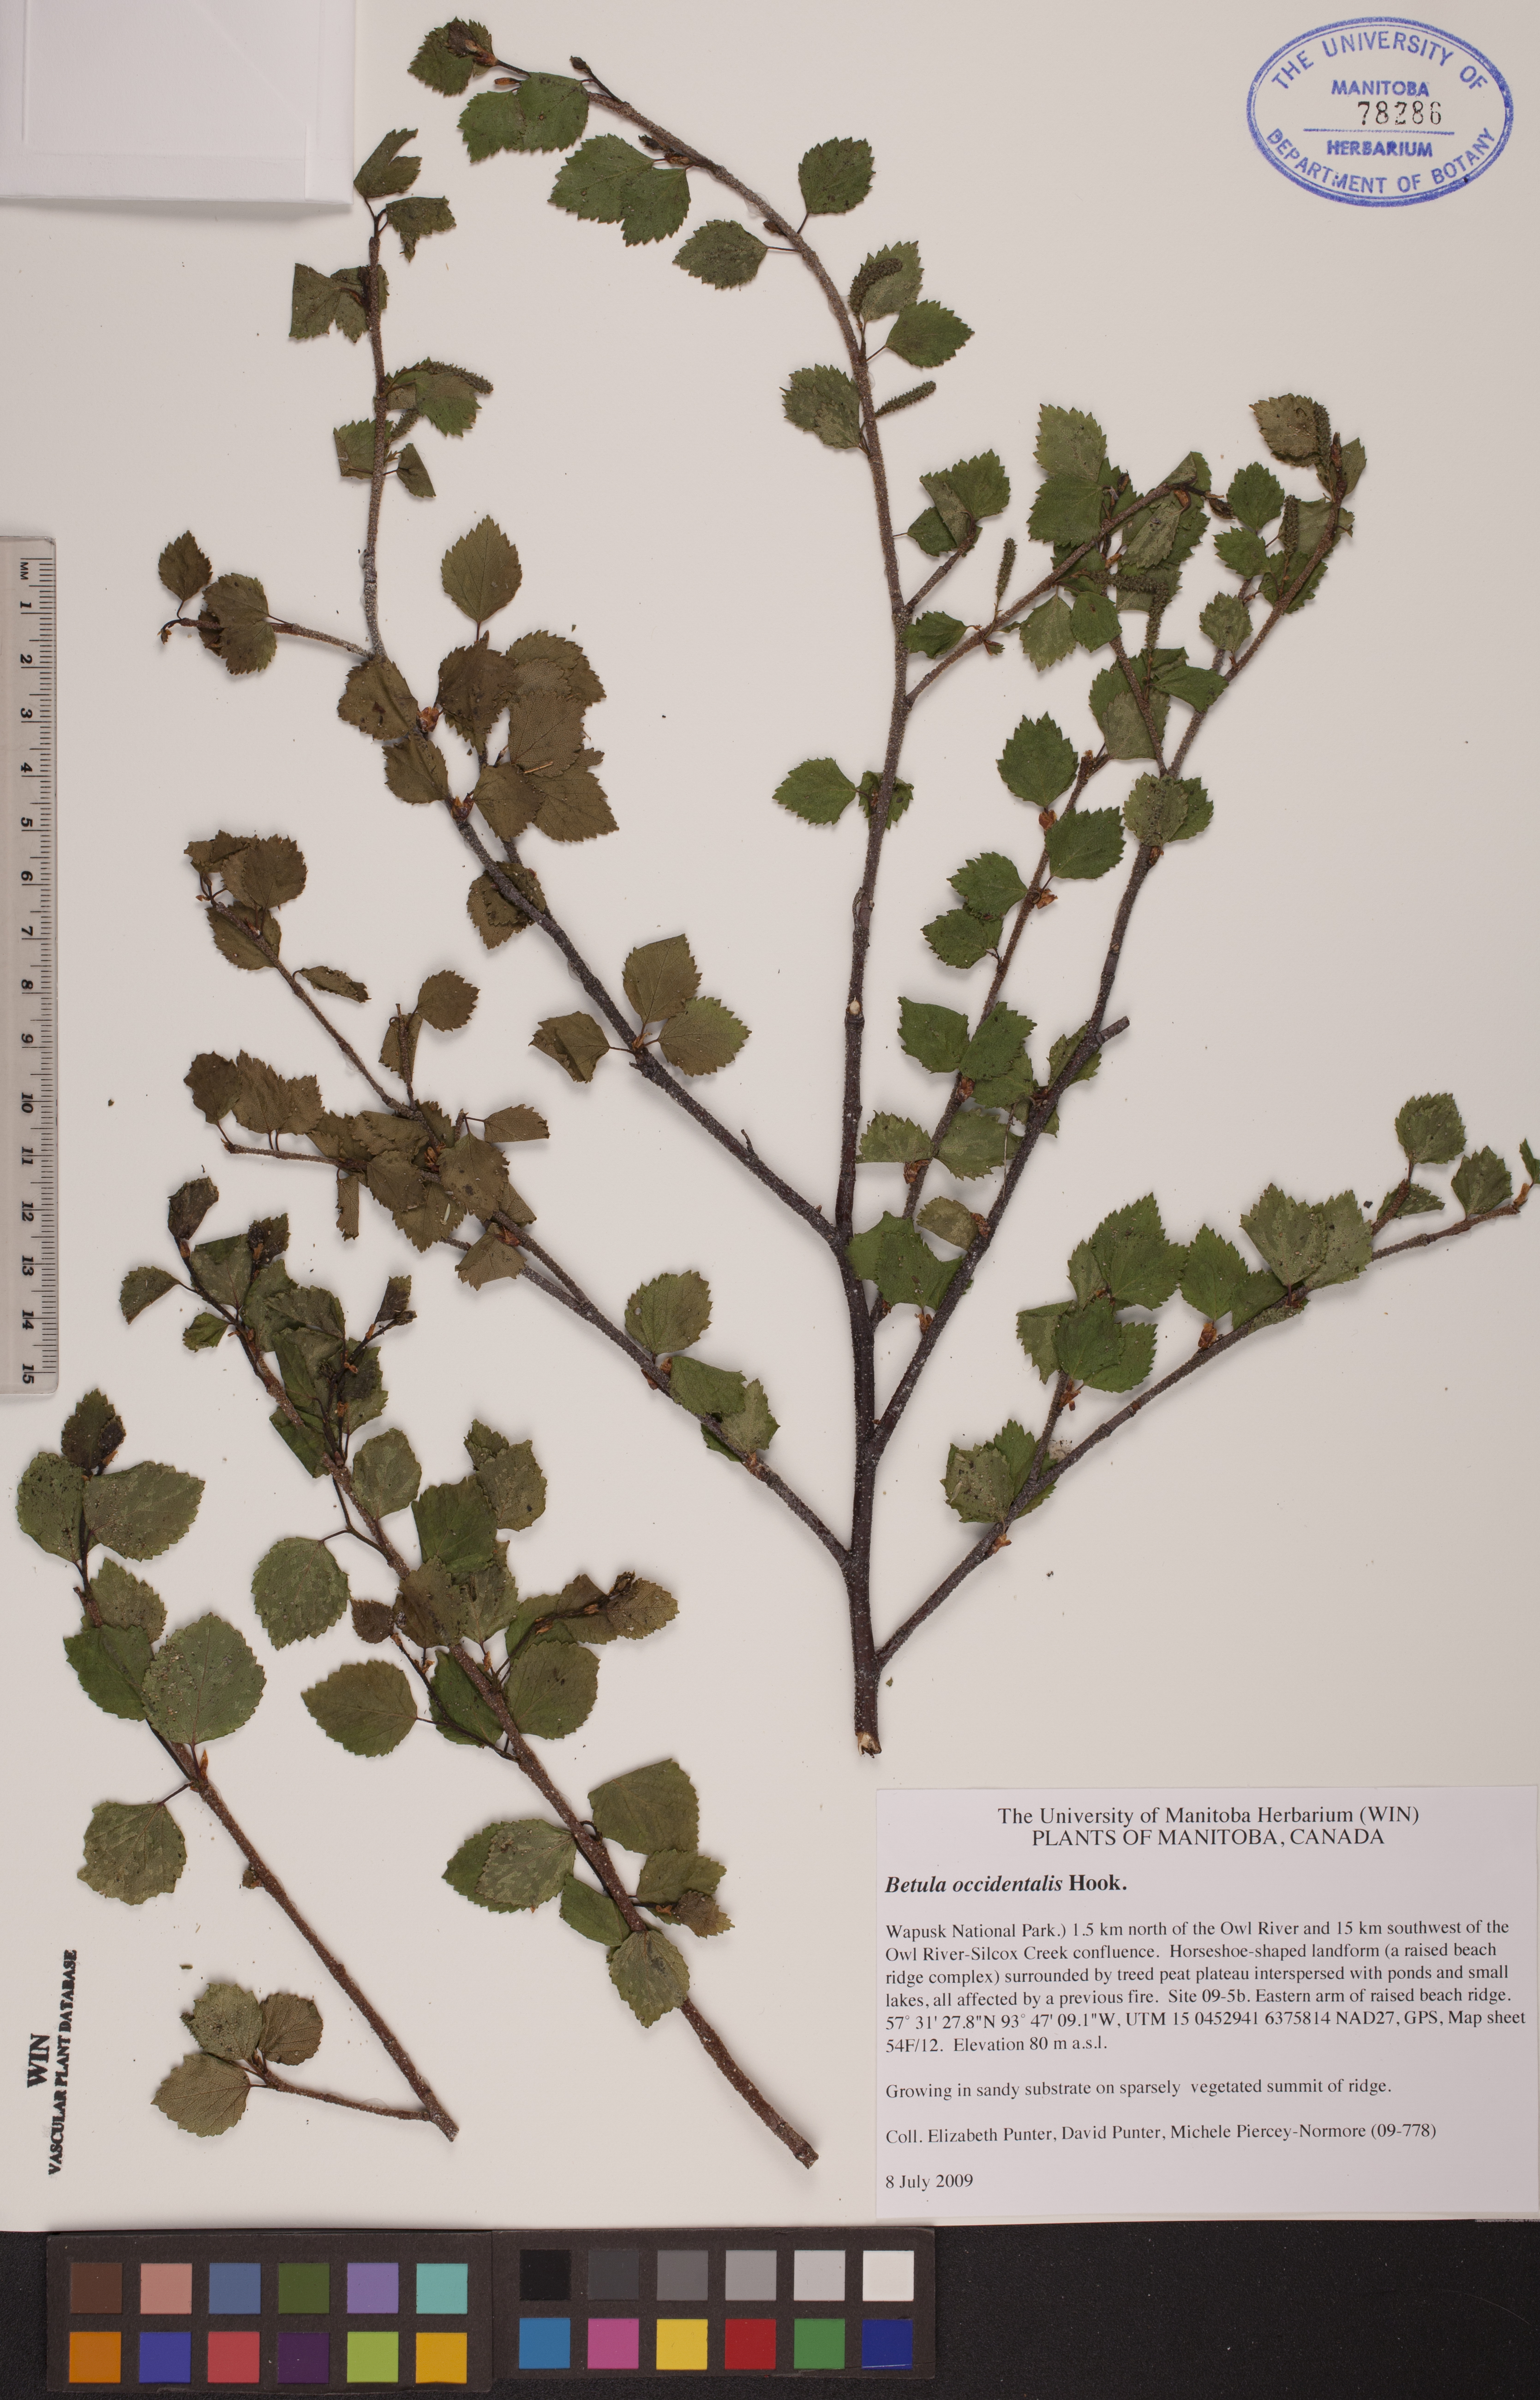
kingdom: Plantae
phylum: Tracheophyta
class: Magnoliopsida
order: Fagales
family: Betulaceae
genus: Betula
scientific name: Betula occidentalis
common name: River birch
